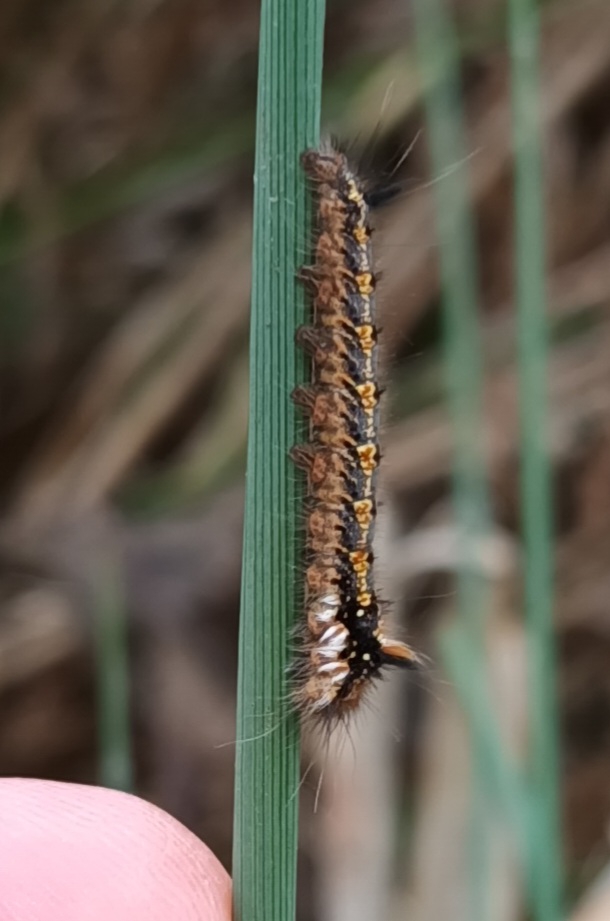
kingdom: Animalia
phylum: Arthropoda
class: Insecta
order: Lepidoptera
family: Lasiocampidae
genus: Euthrix
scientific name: Euthrix potatoria
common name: Græsspinder
